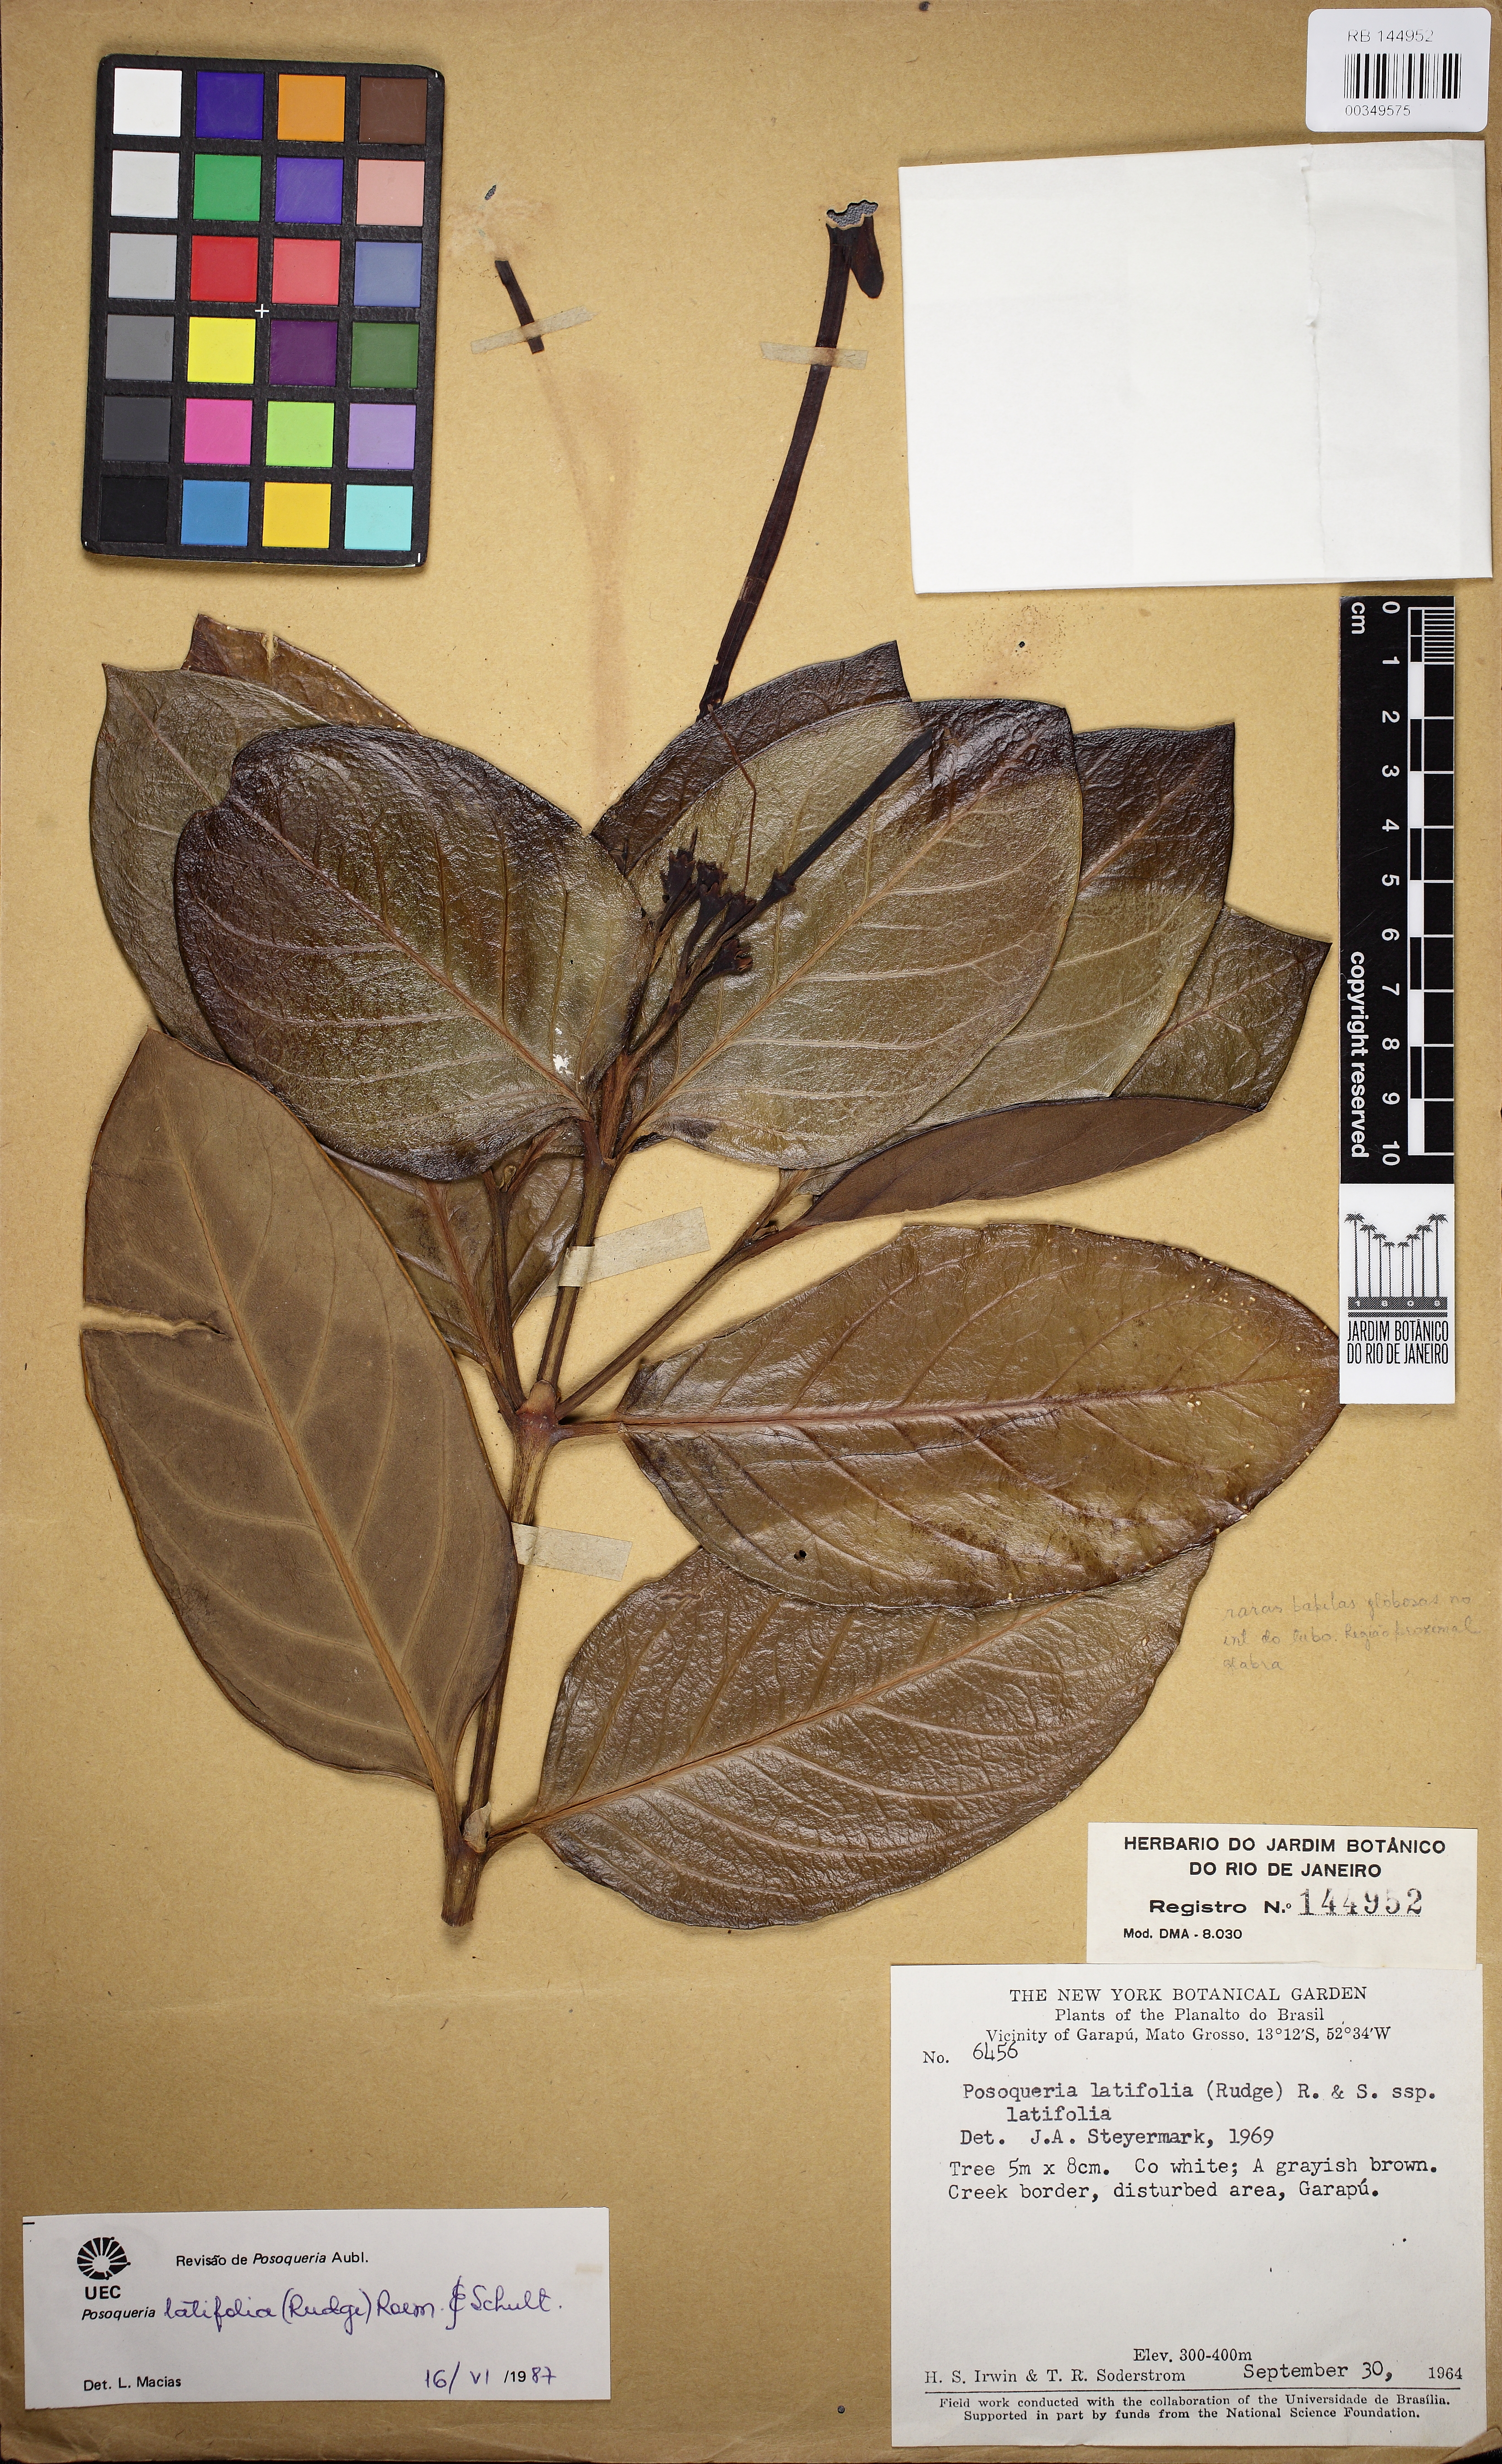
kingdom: Plantae
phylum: Tracheophyta
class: Magnoliopsida
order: Gentianales
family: Rubiaceae
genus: Posoqueria
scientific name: Posoqueria latifolia
